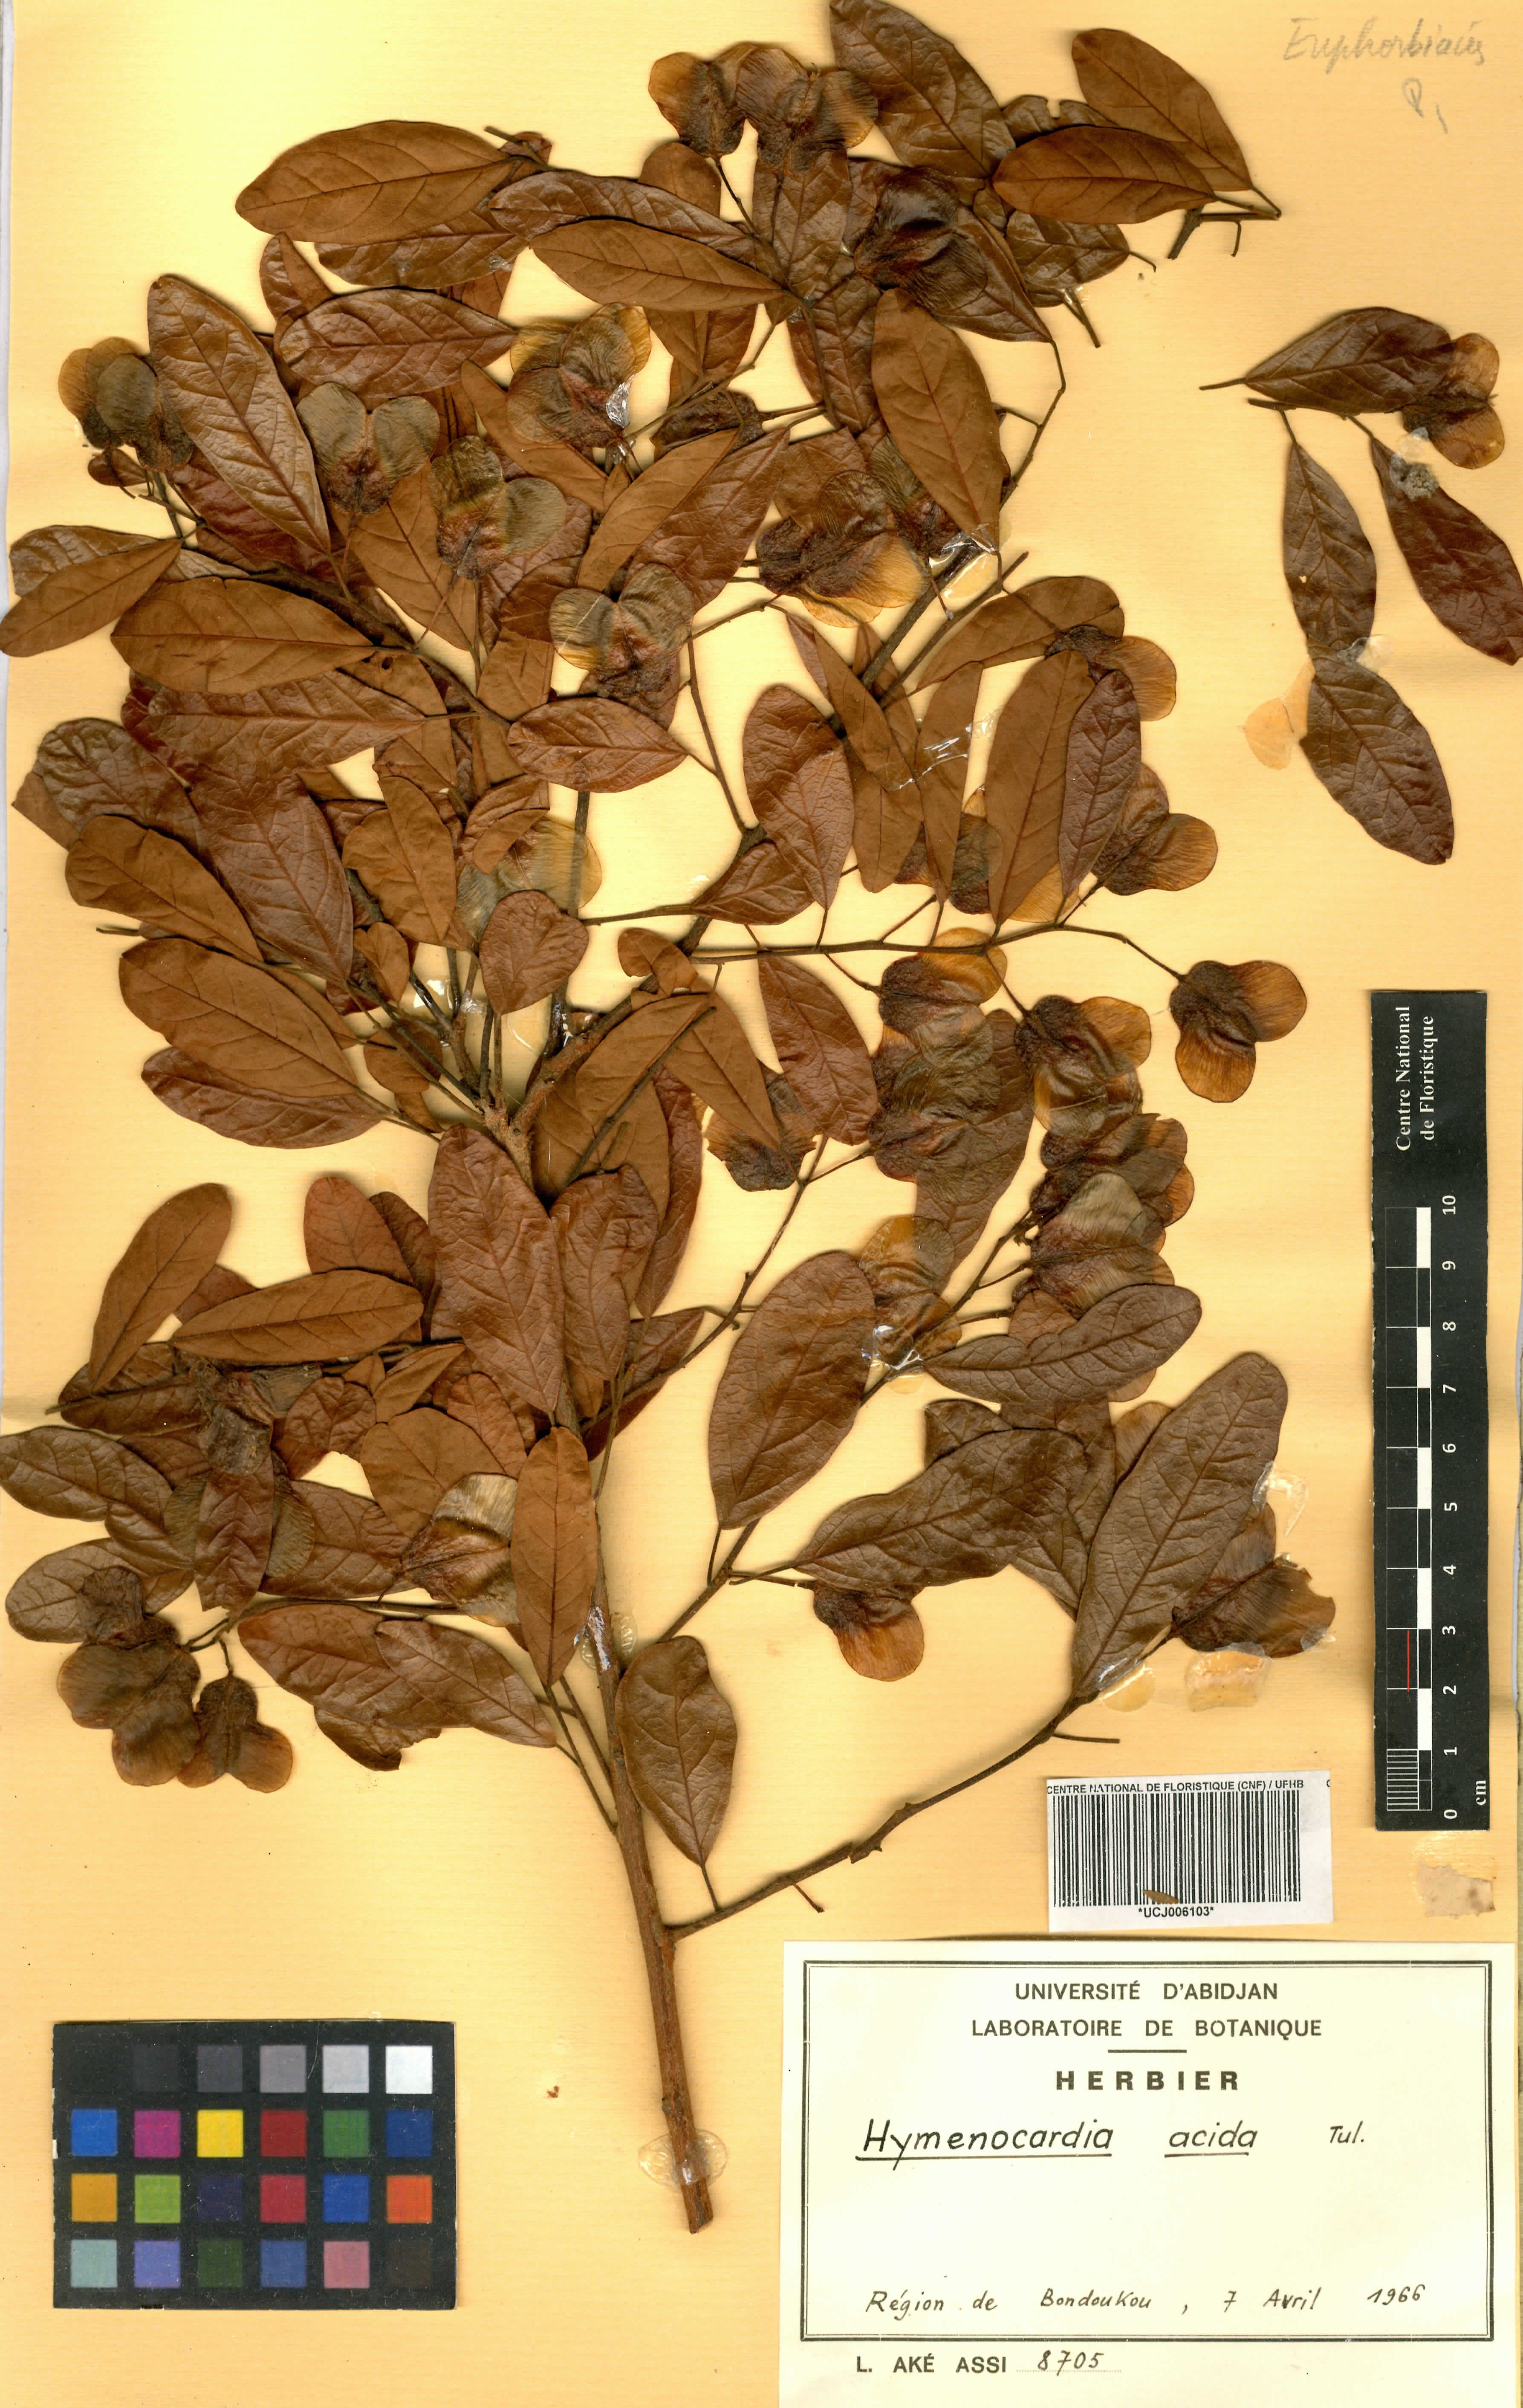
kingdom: Plantae
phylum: Tracheophyta
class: Magnoliopsida
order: Malpighiales
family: Phyllanthaceae
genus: Hymenocardia
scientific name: Hymenocardia acida
